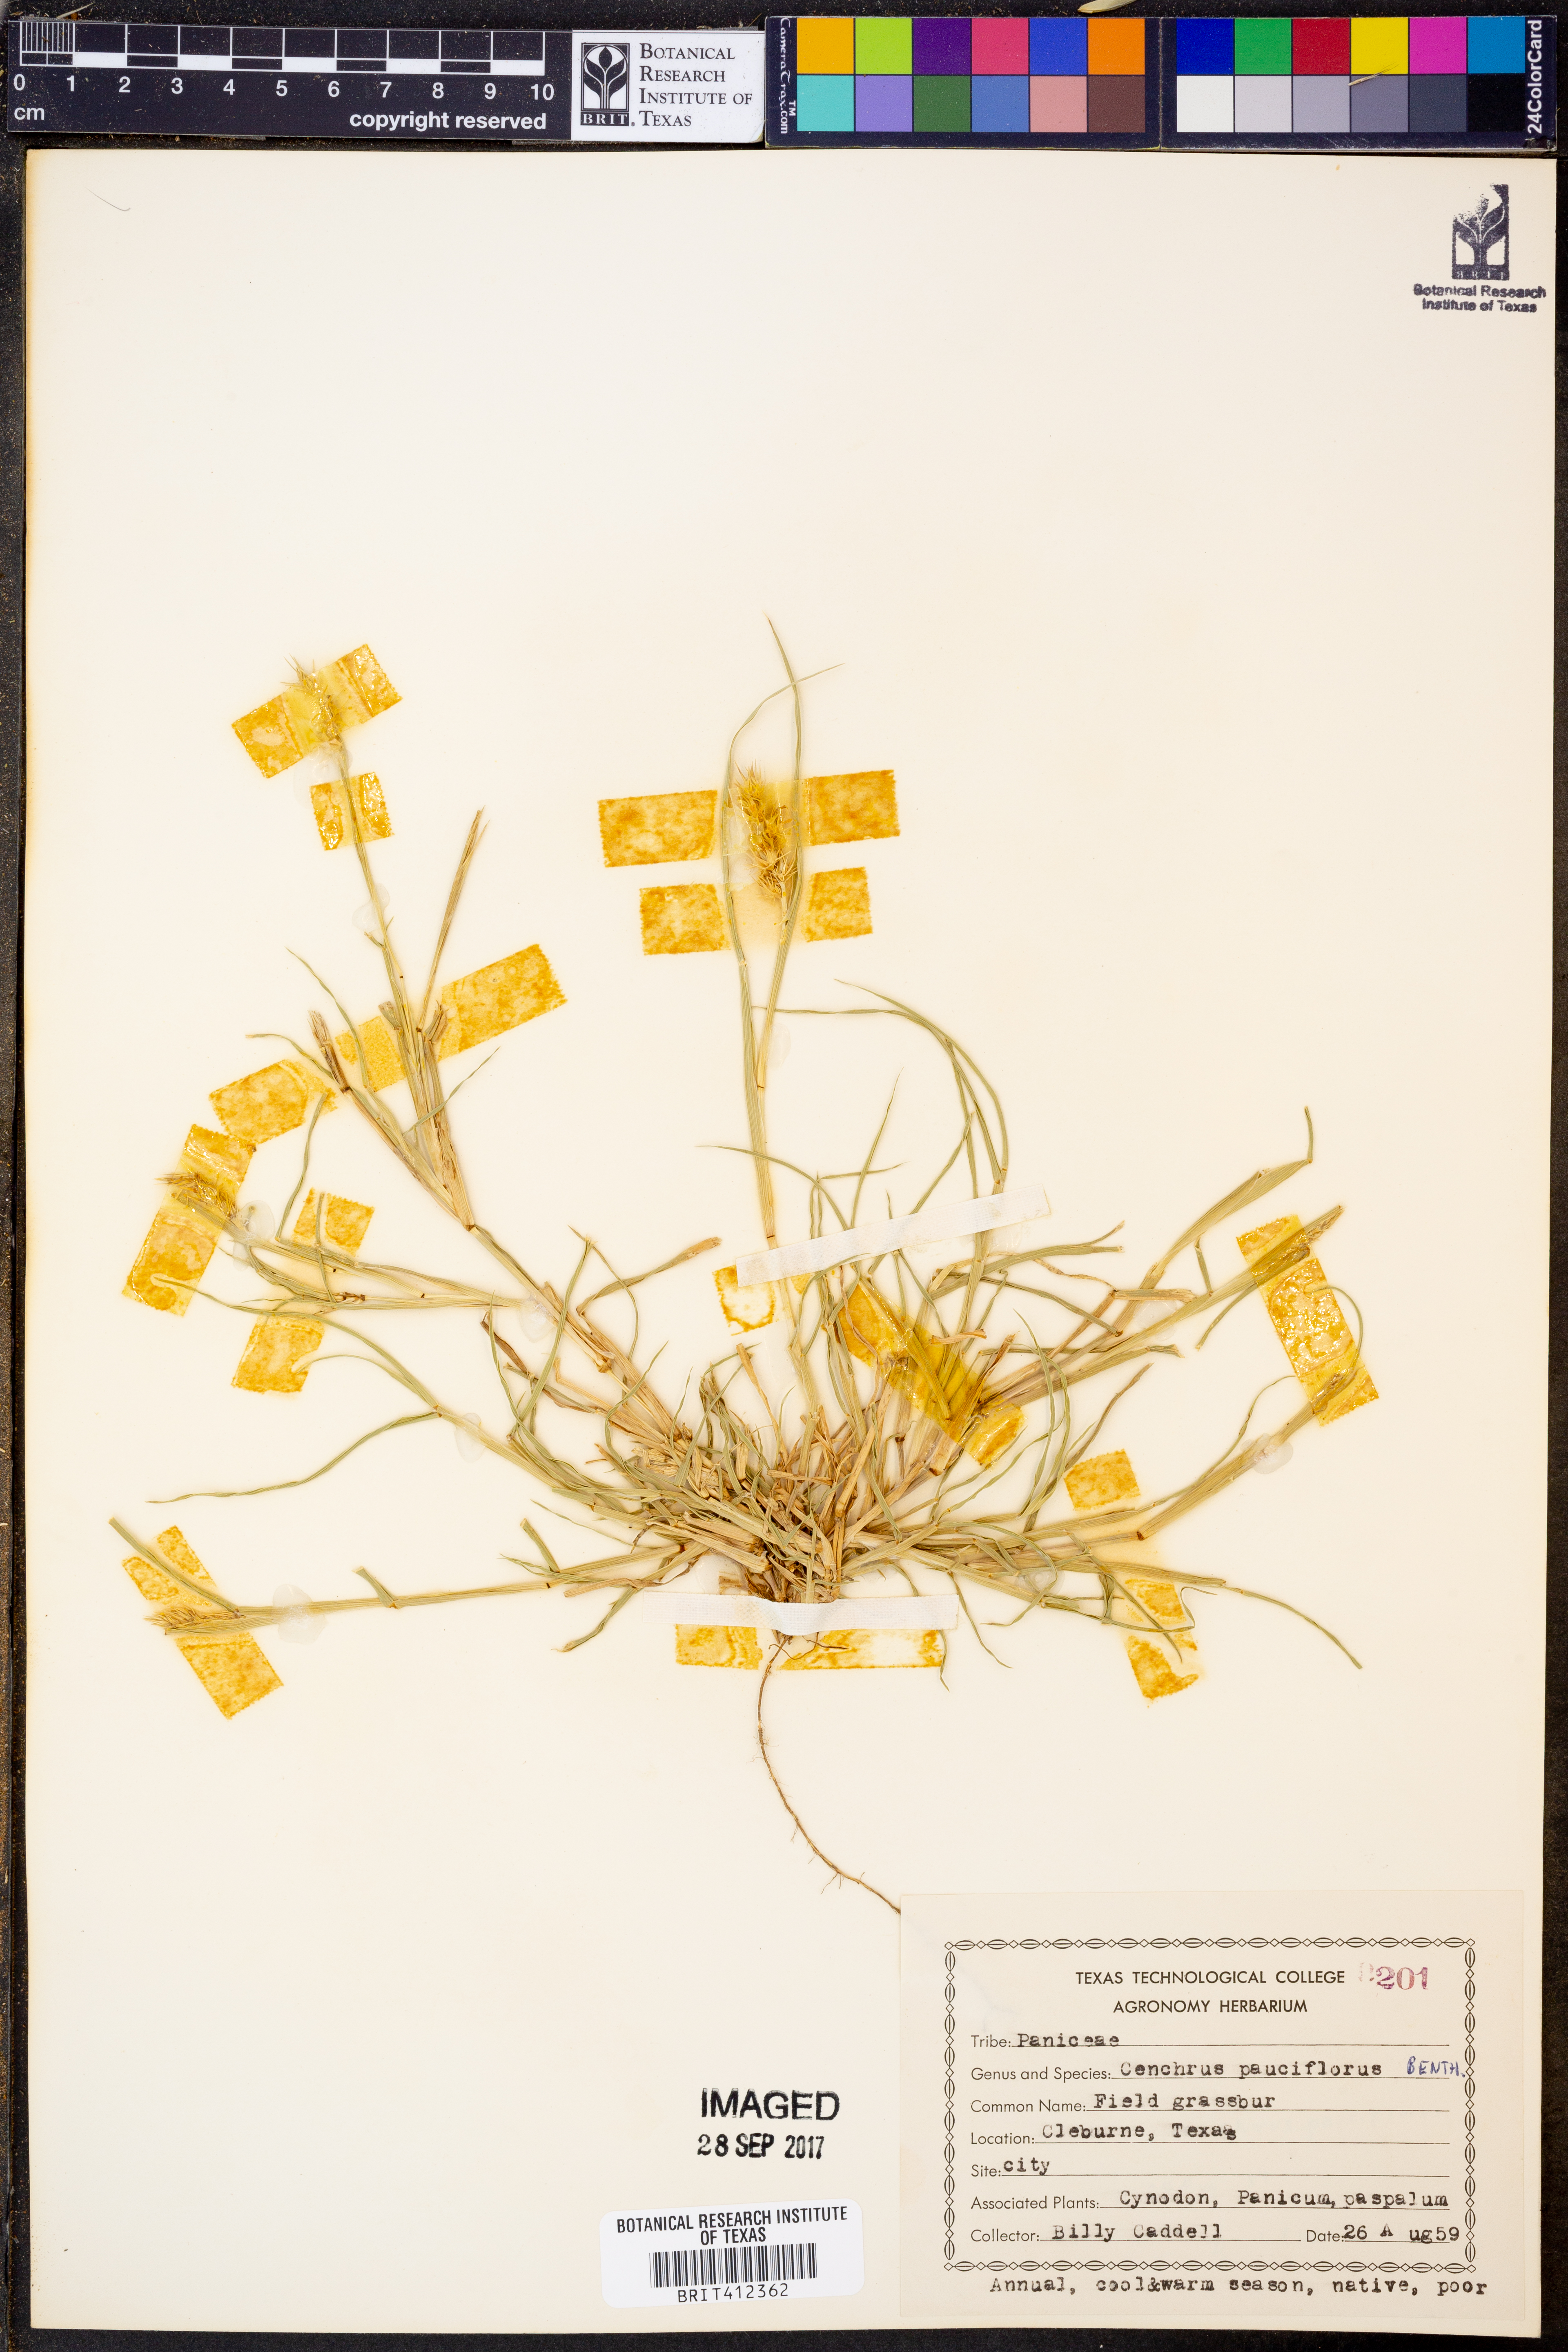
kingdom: Plantae
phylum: Tracheophyta
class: Liliopsida
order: Poales
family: Poaceae
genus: Cenchrus
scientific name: Cenchrus spinifex
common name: Coast sandbur
